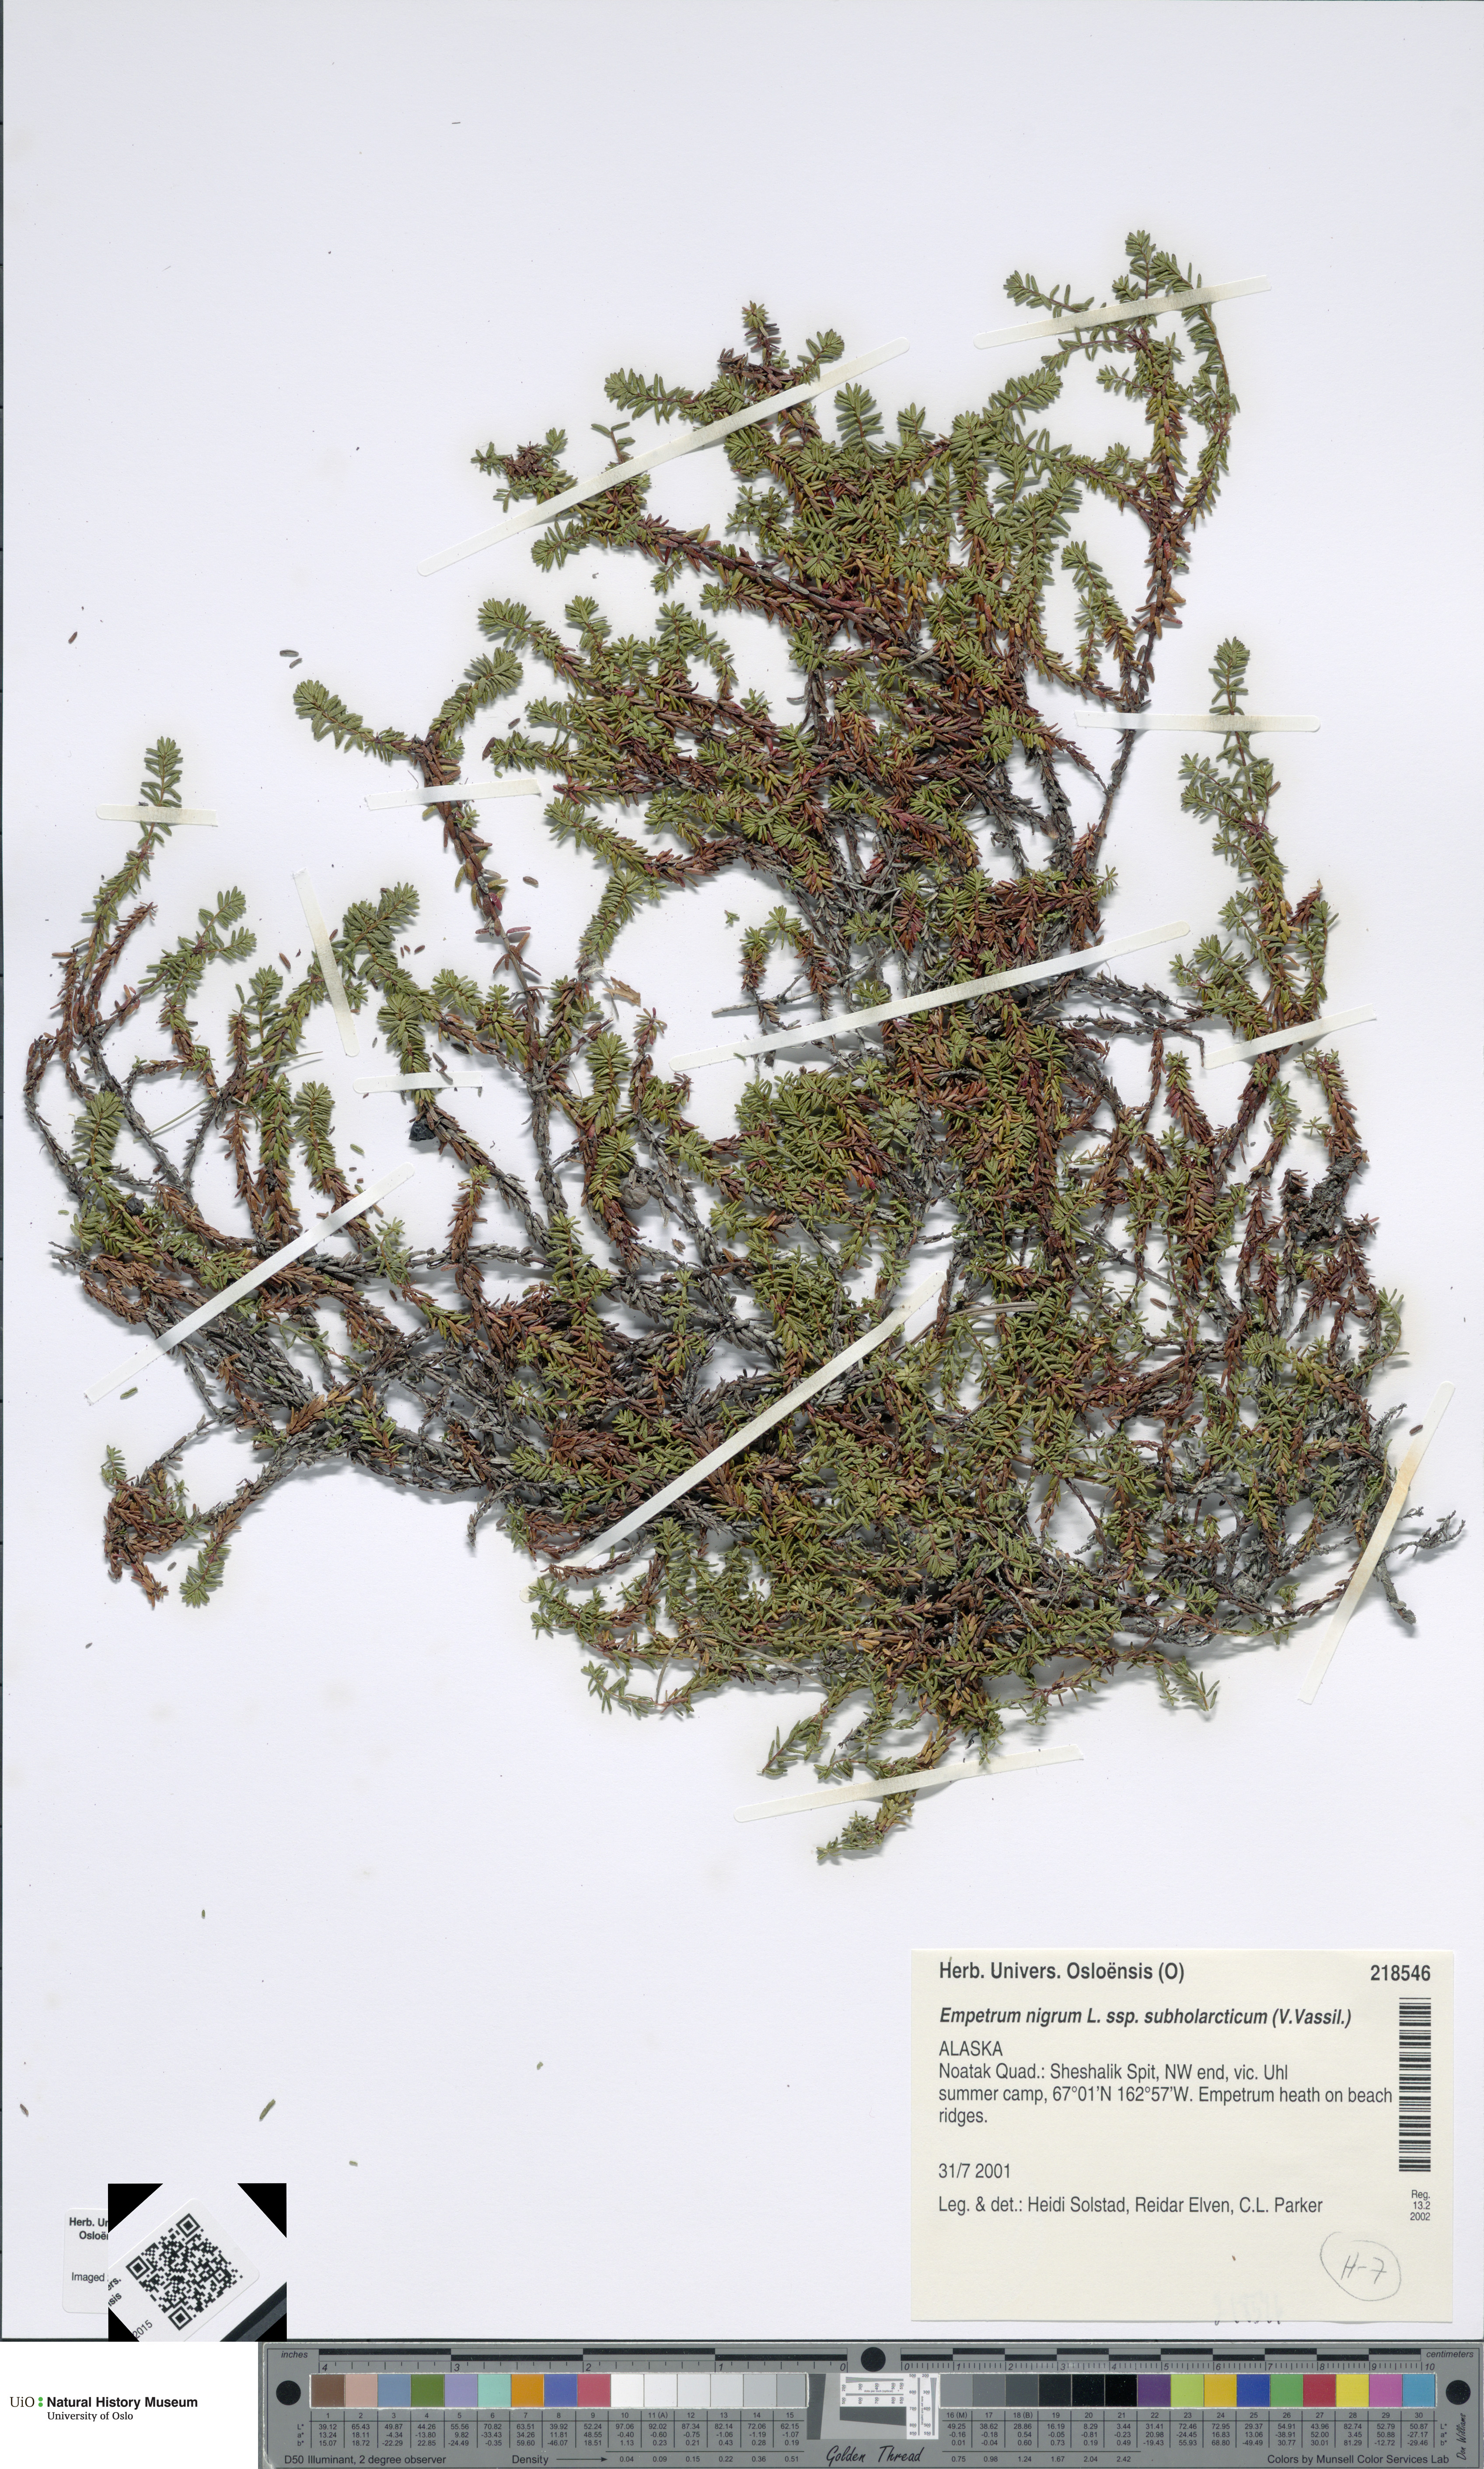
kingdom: Plantae
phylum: Tracheophyta
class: Magnoliopsida
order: Ericales
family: Ericaceae
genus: Empetrum
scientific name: Empetrum nigrum
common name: Black crowberry
